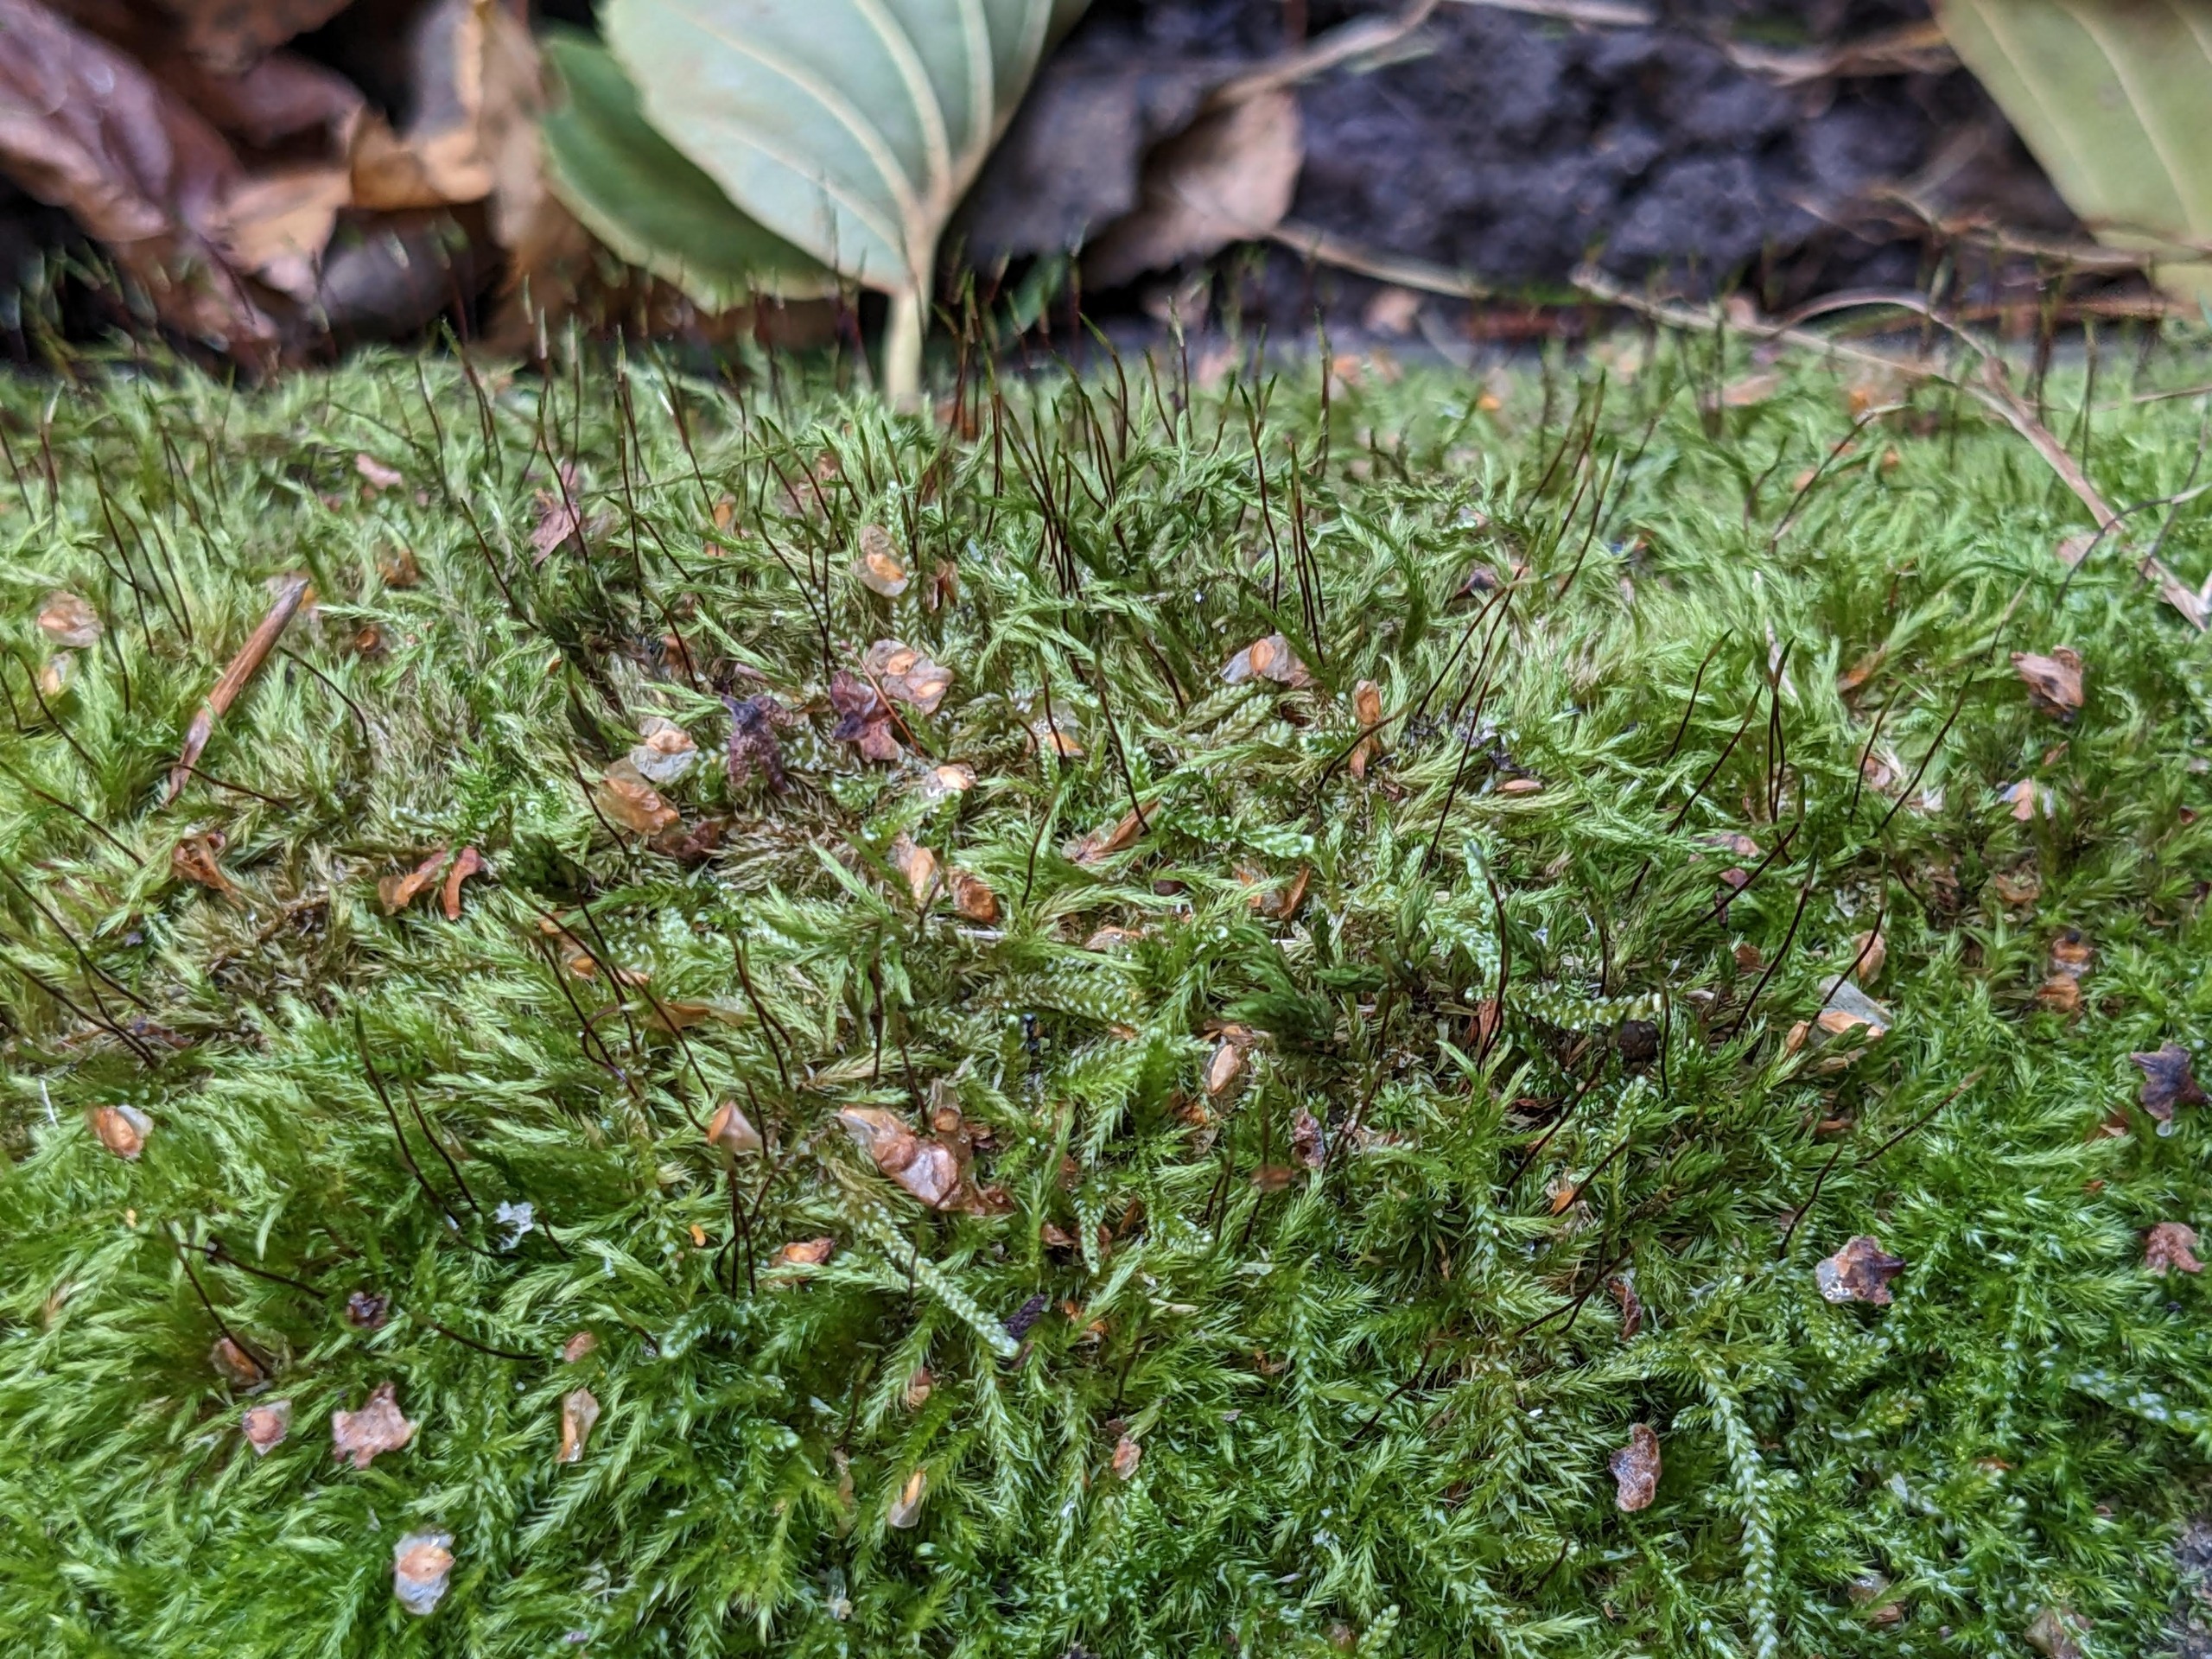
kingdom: Plantae
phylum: Bryophyta
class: Bryopsida
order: Hypnales
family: Brachytheciaceae
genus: Sciuro-hypnum
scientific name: Sciuro-hypnum populeum
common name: Park-kortkapsel
